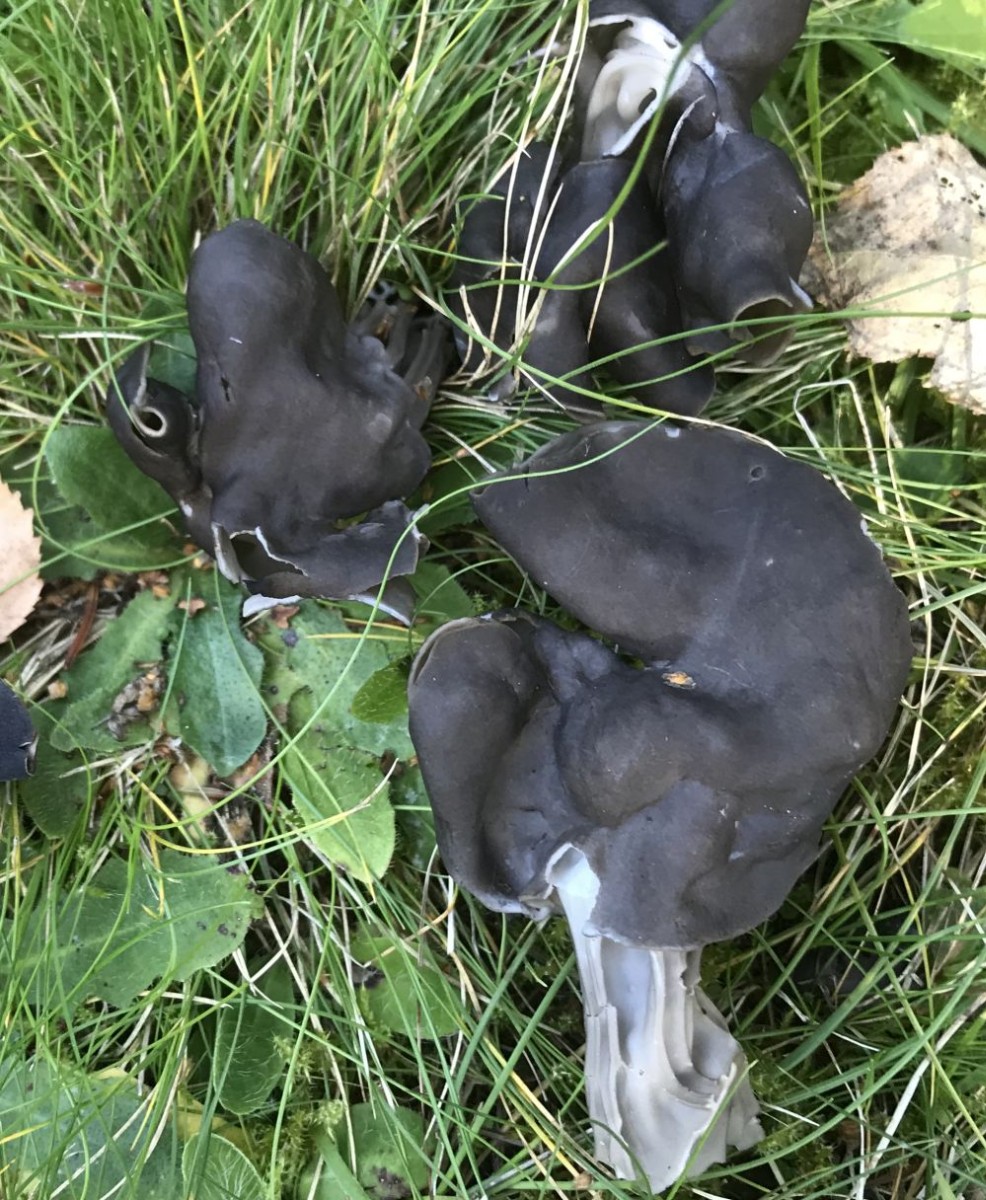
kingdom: Fungi
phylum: Ascomycota
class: Pezizomycetes
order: Pezizales
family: Helvellaceae
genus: Helvella
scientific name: Helvella lacunosa
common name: grubet foldhat
